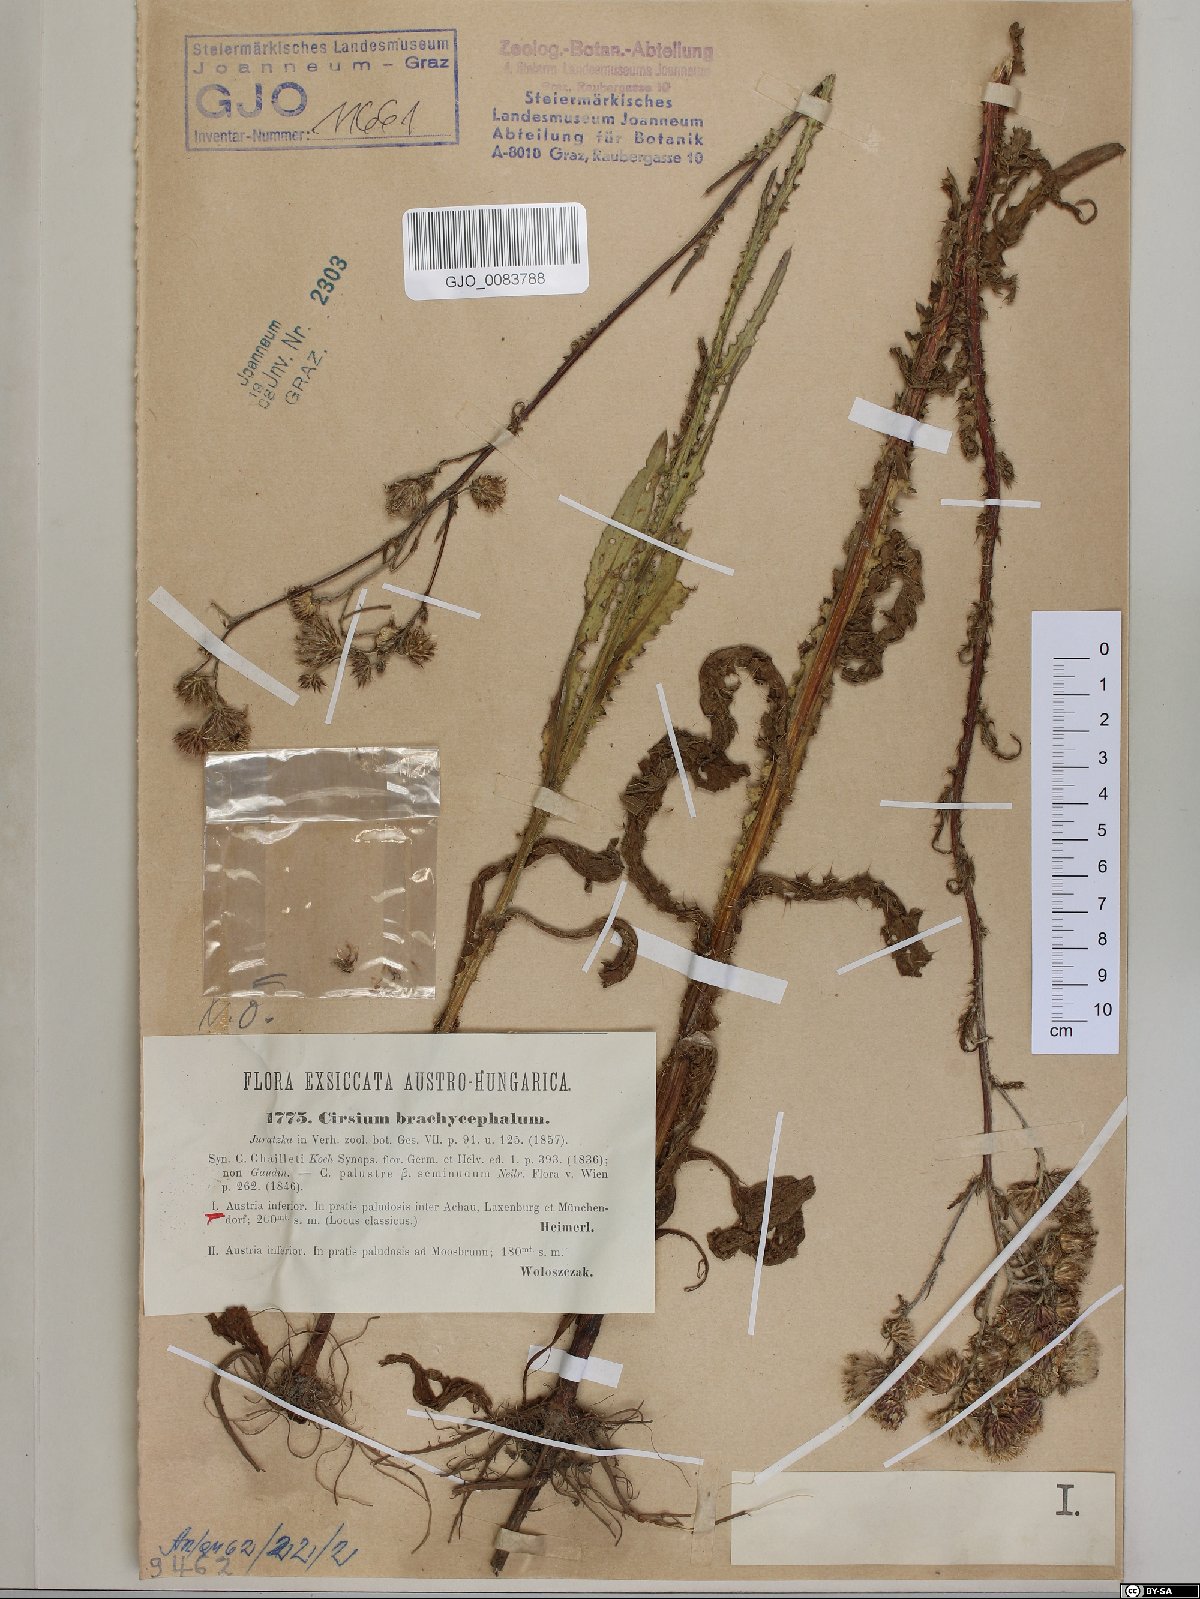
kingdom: Plantae
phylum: Tracheophyta
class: Magnoliopsida
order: Asterales
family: Asteraceae
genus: Cirsium
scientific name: Cirsium brachycephalum
